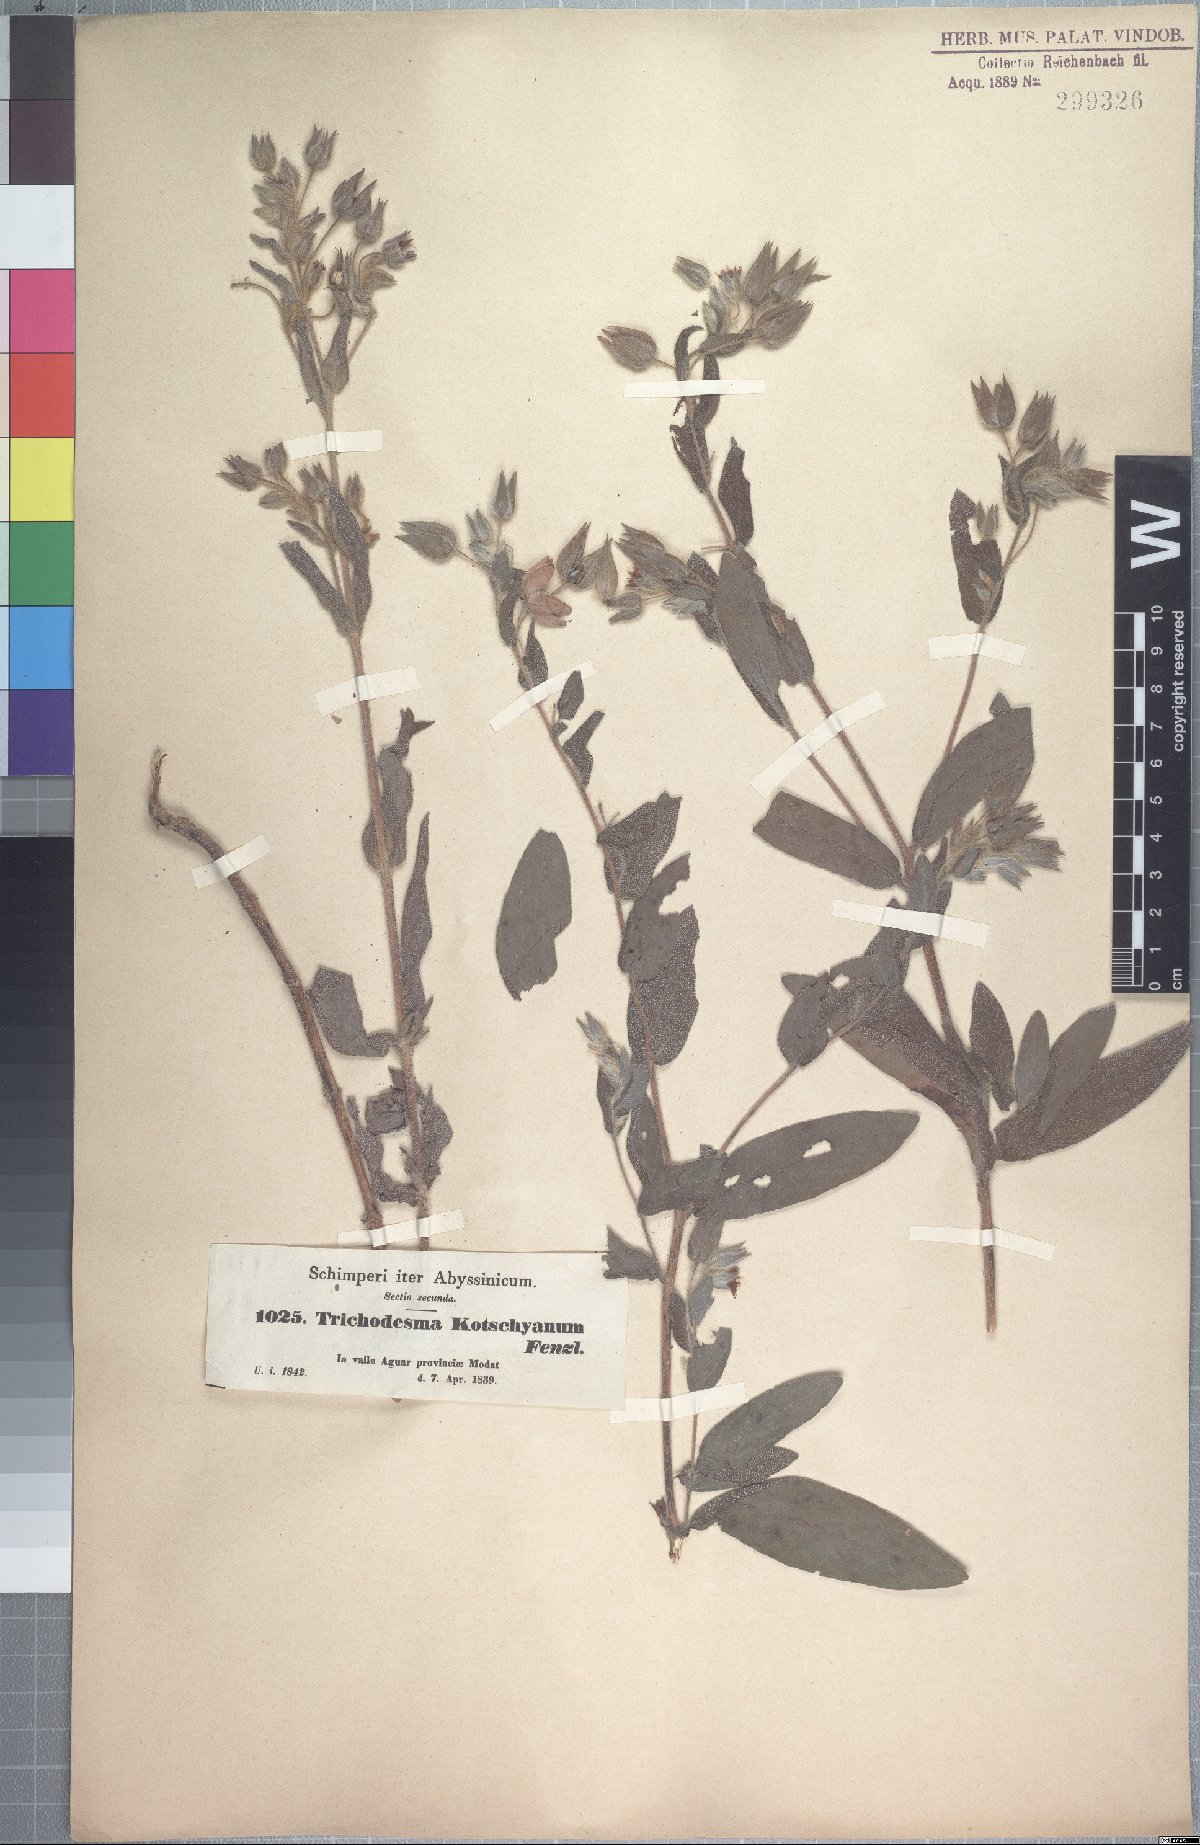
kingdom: Plantae
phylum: Tracheophyta
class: Magnoliopsida
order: Boraginales
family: Boraginaceae
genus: Trichodesma
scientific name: Trichodesma zeylanicum
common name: Camelbush
